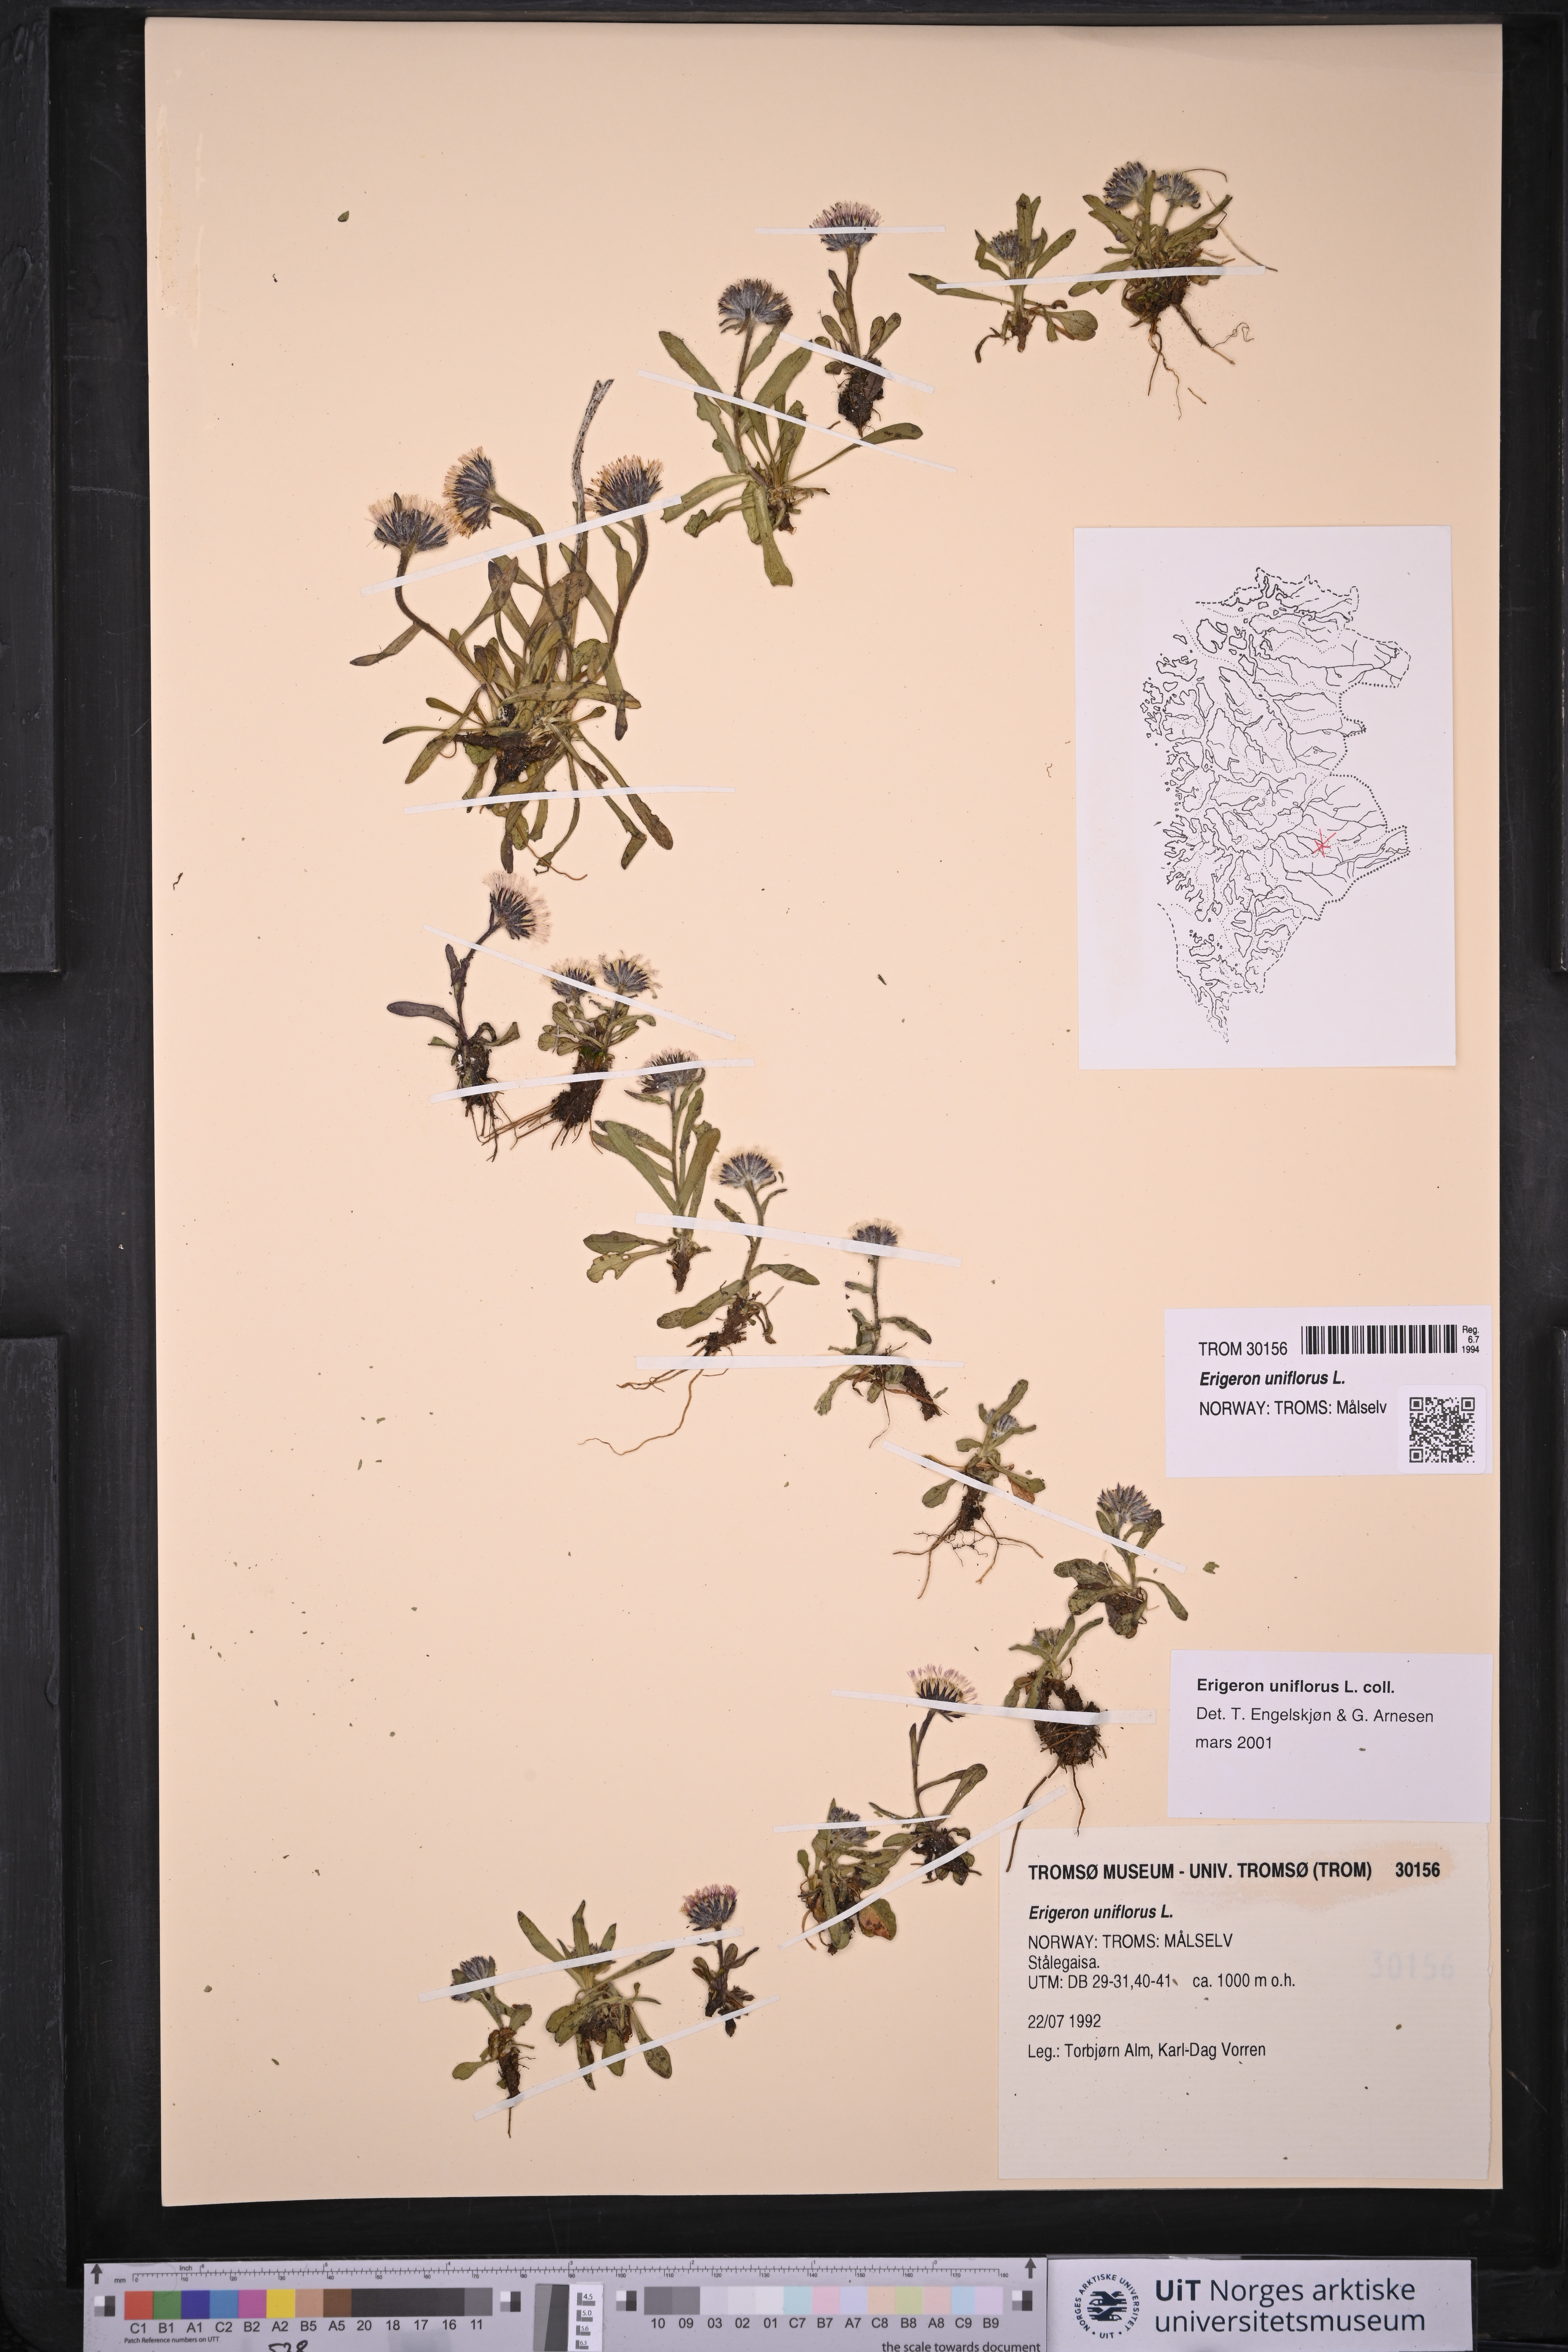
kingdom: Plantae
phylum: Tracheophyta
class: Magnoliopsida
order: Asterales
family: Asteraceae
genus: Erigeron
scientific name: Erigeron uniflorus
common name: Northern daisy
